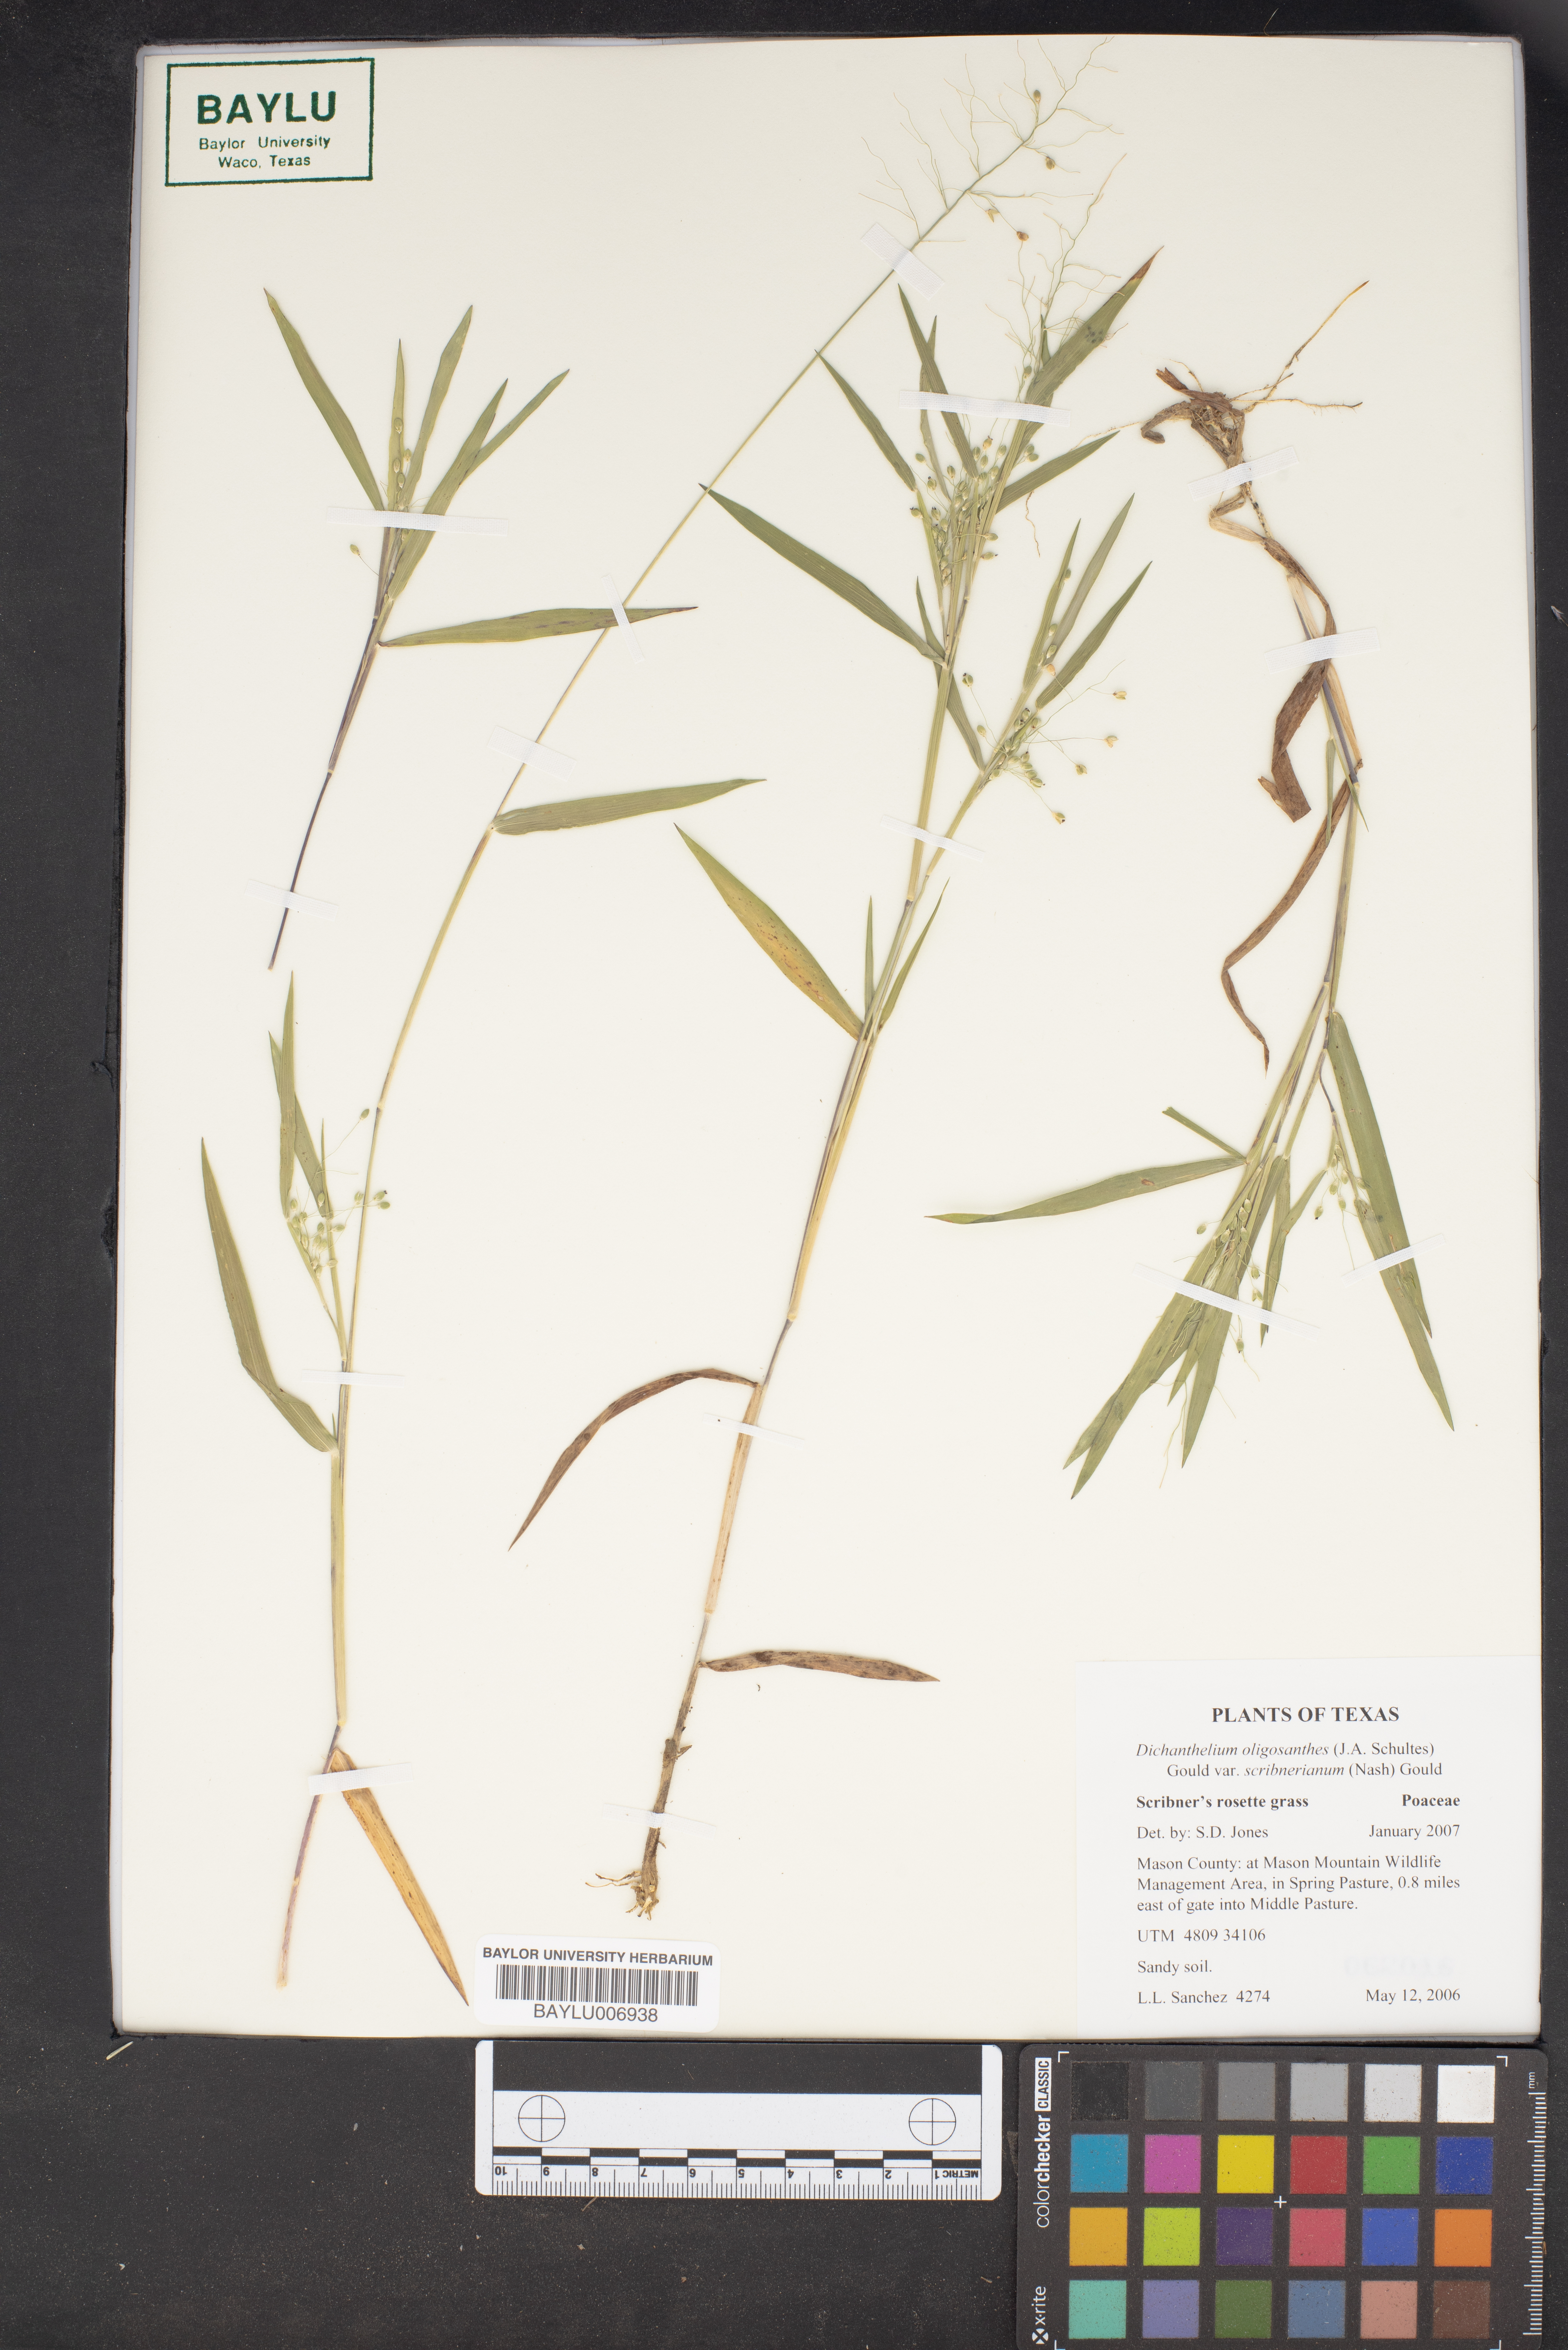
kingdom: Plantae
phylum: Tracheophyta
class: Liliopsida
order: Poales
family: Poaceae
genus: Dichanthelium
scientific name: Dichanthelium scribnerianum
